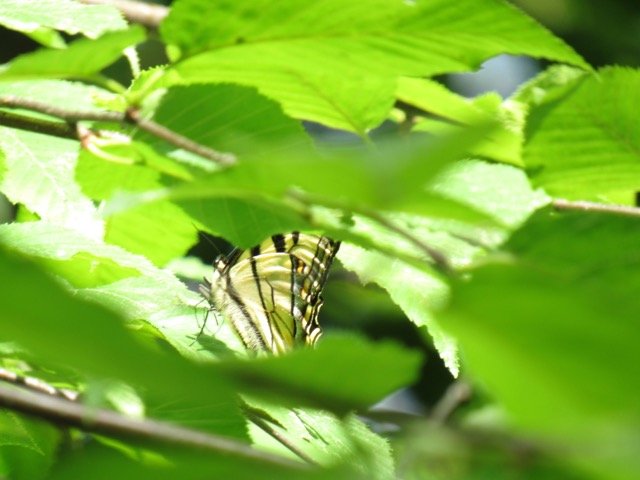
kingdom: Animalia
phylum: Arthropoda
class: Insecta
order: Lepidoptera
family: Papilionidae
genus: Pterourus
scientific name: Pterourus canadensis
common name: Canadian Tiger Swallowtail
